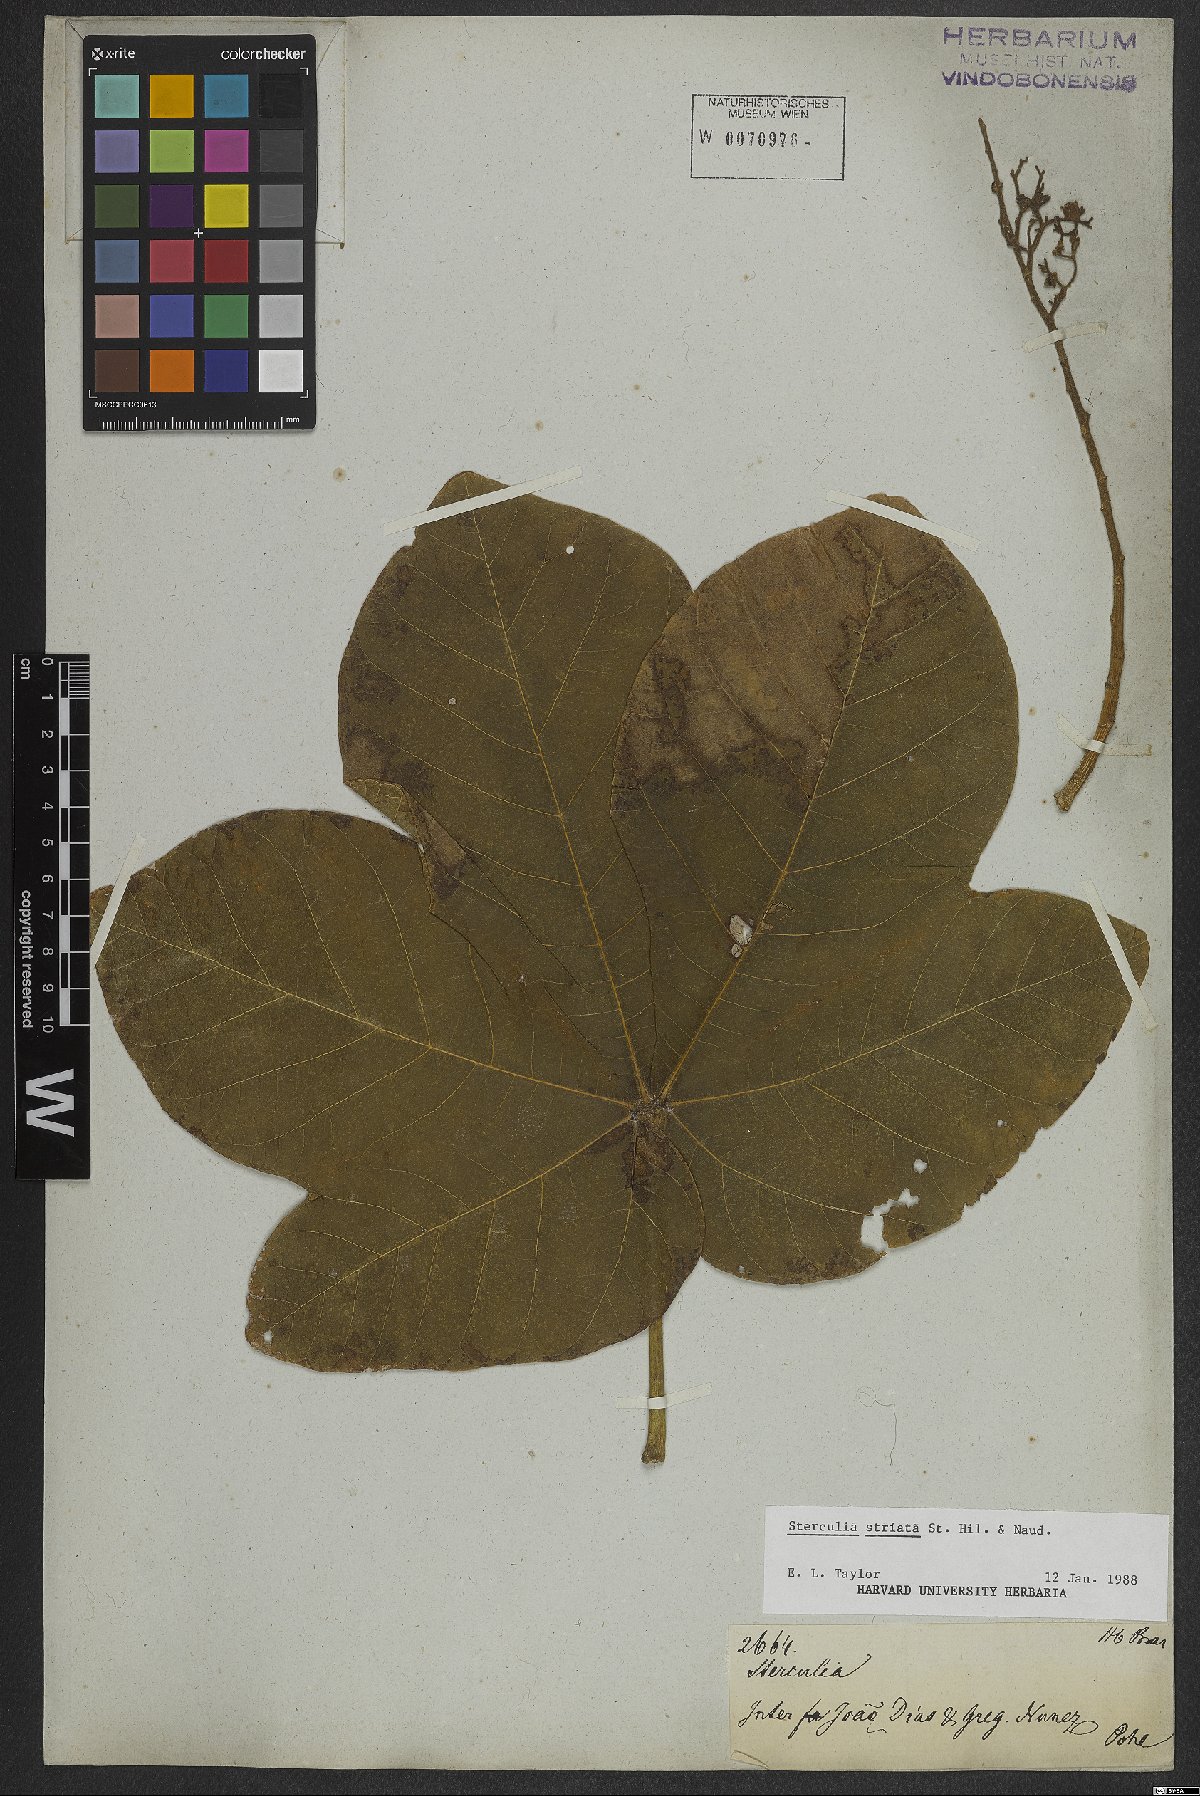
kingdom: Plantae
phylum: Tracheophyta
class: Magnoliopsida
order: Malvales
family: Malvaceae
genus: Sterculia
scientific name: Sterculia striata
